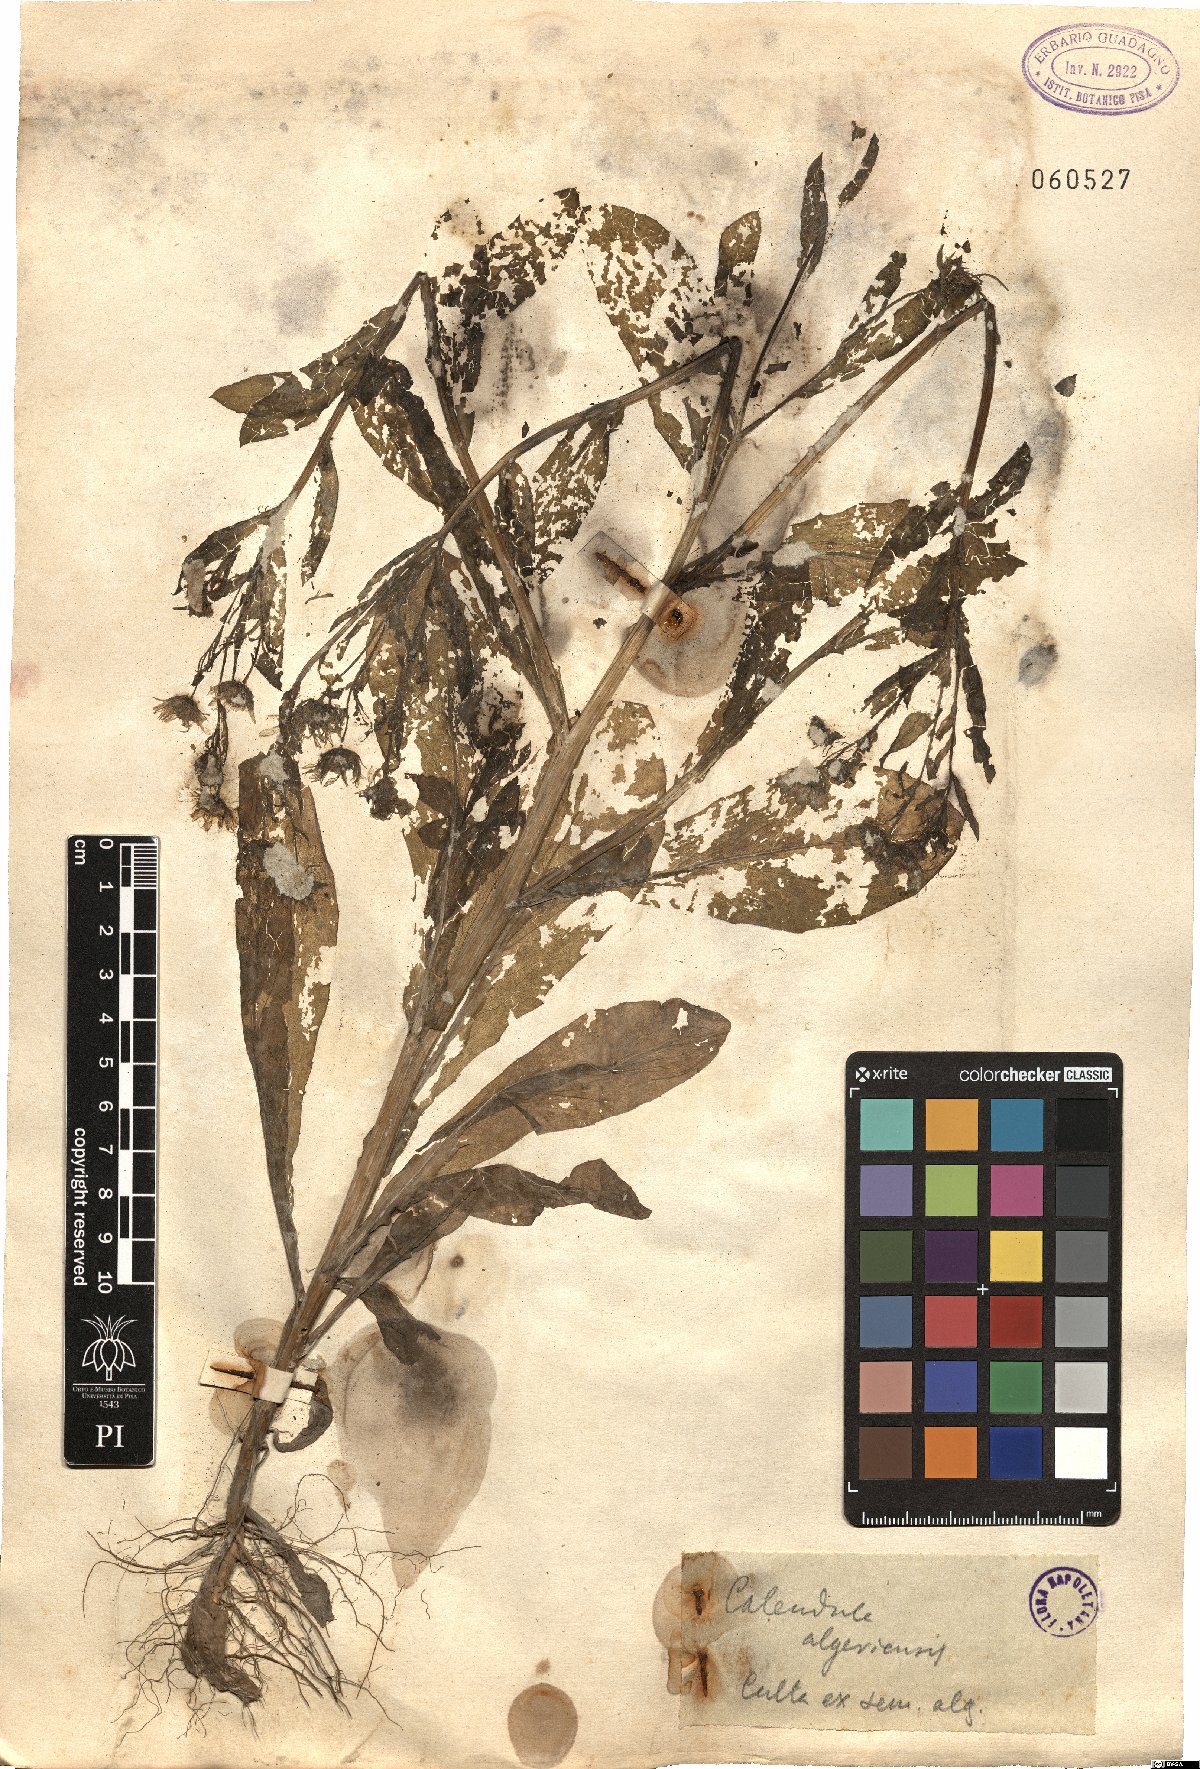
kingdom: Plantae
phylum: Tracheophyta
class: Magnoliopsida
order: Asterales
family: Asteraceae
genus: Calendula
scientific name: Calendula arvensis
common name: Field marigold
